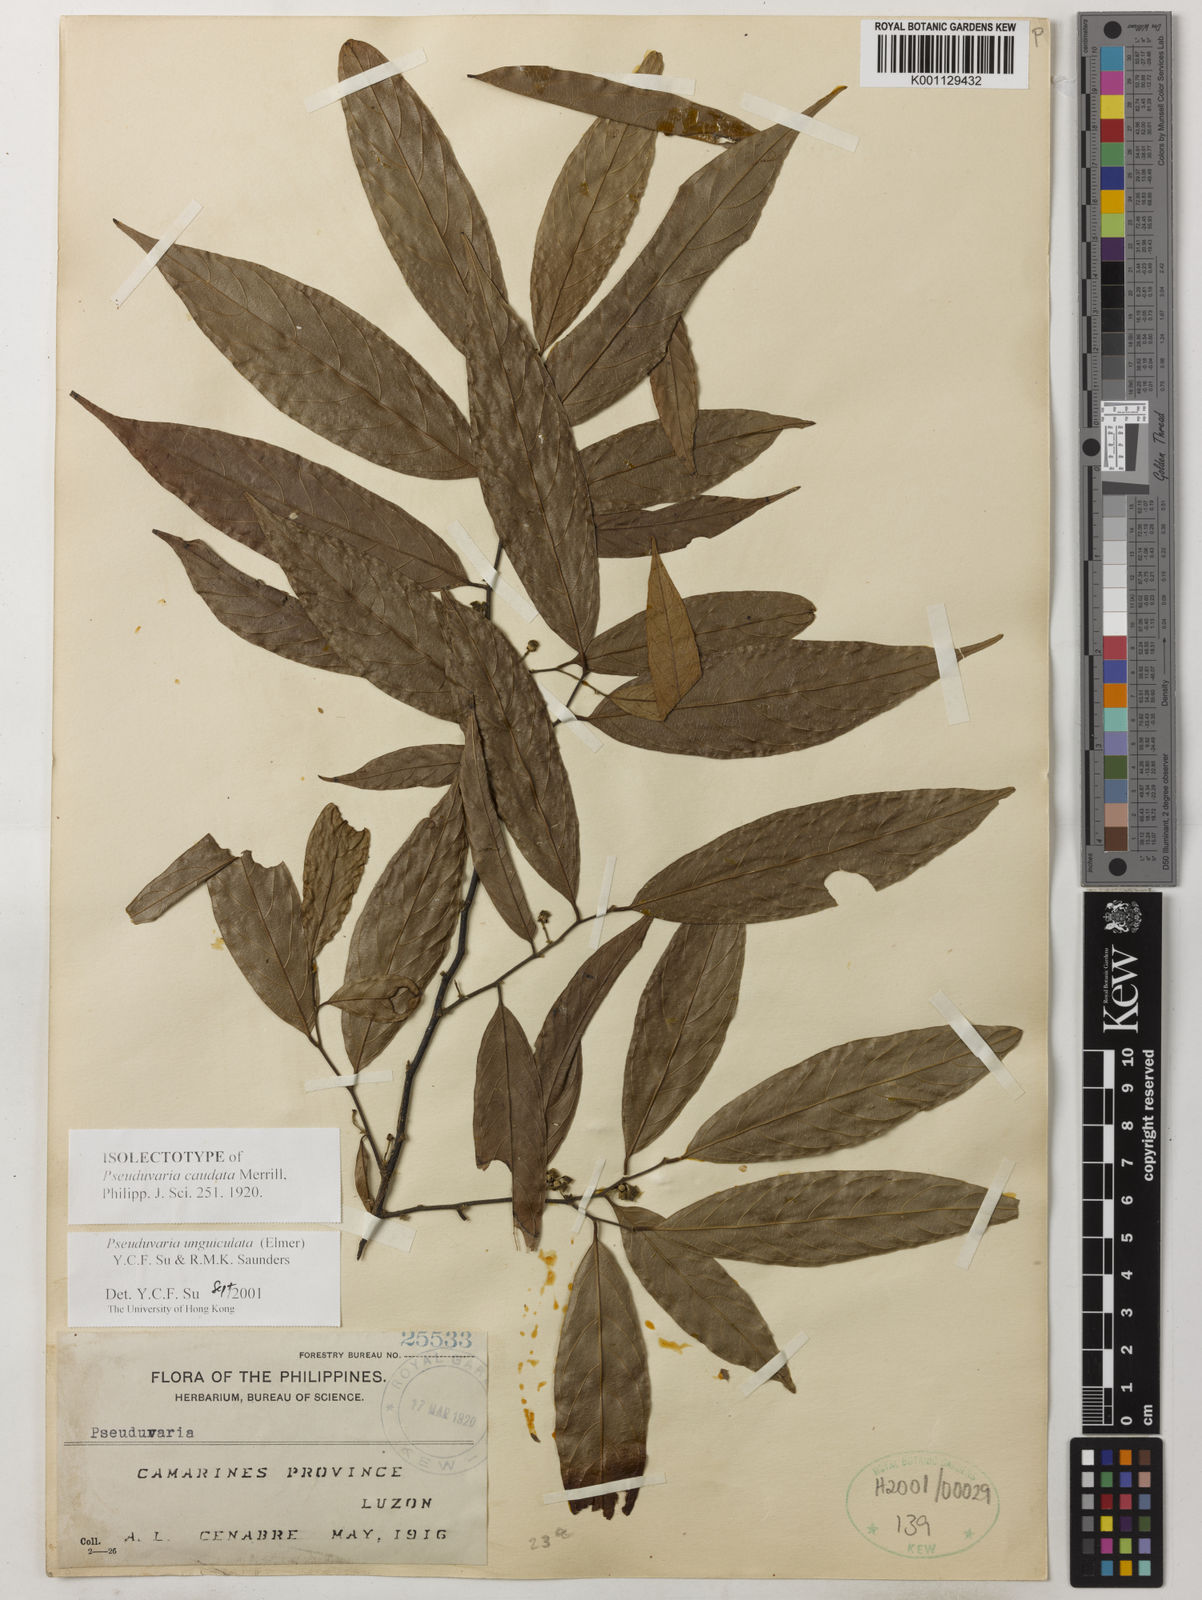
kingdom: Plantae
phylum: Tracheophyta
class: Magnoliopsida
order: Magnoliales
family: Annonaceae
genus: Pseuduvaria
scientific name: Pseuduvaria unguiculata
